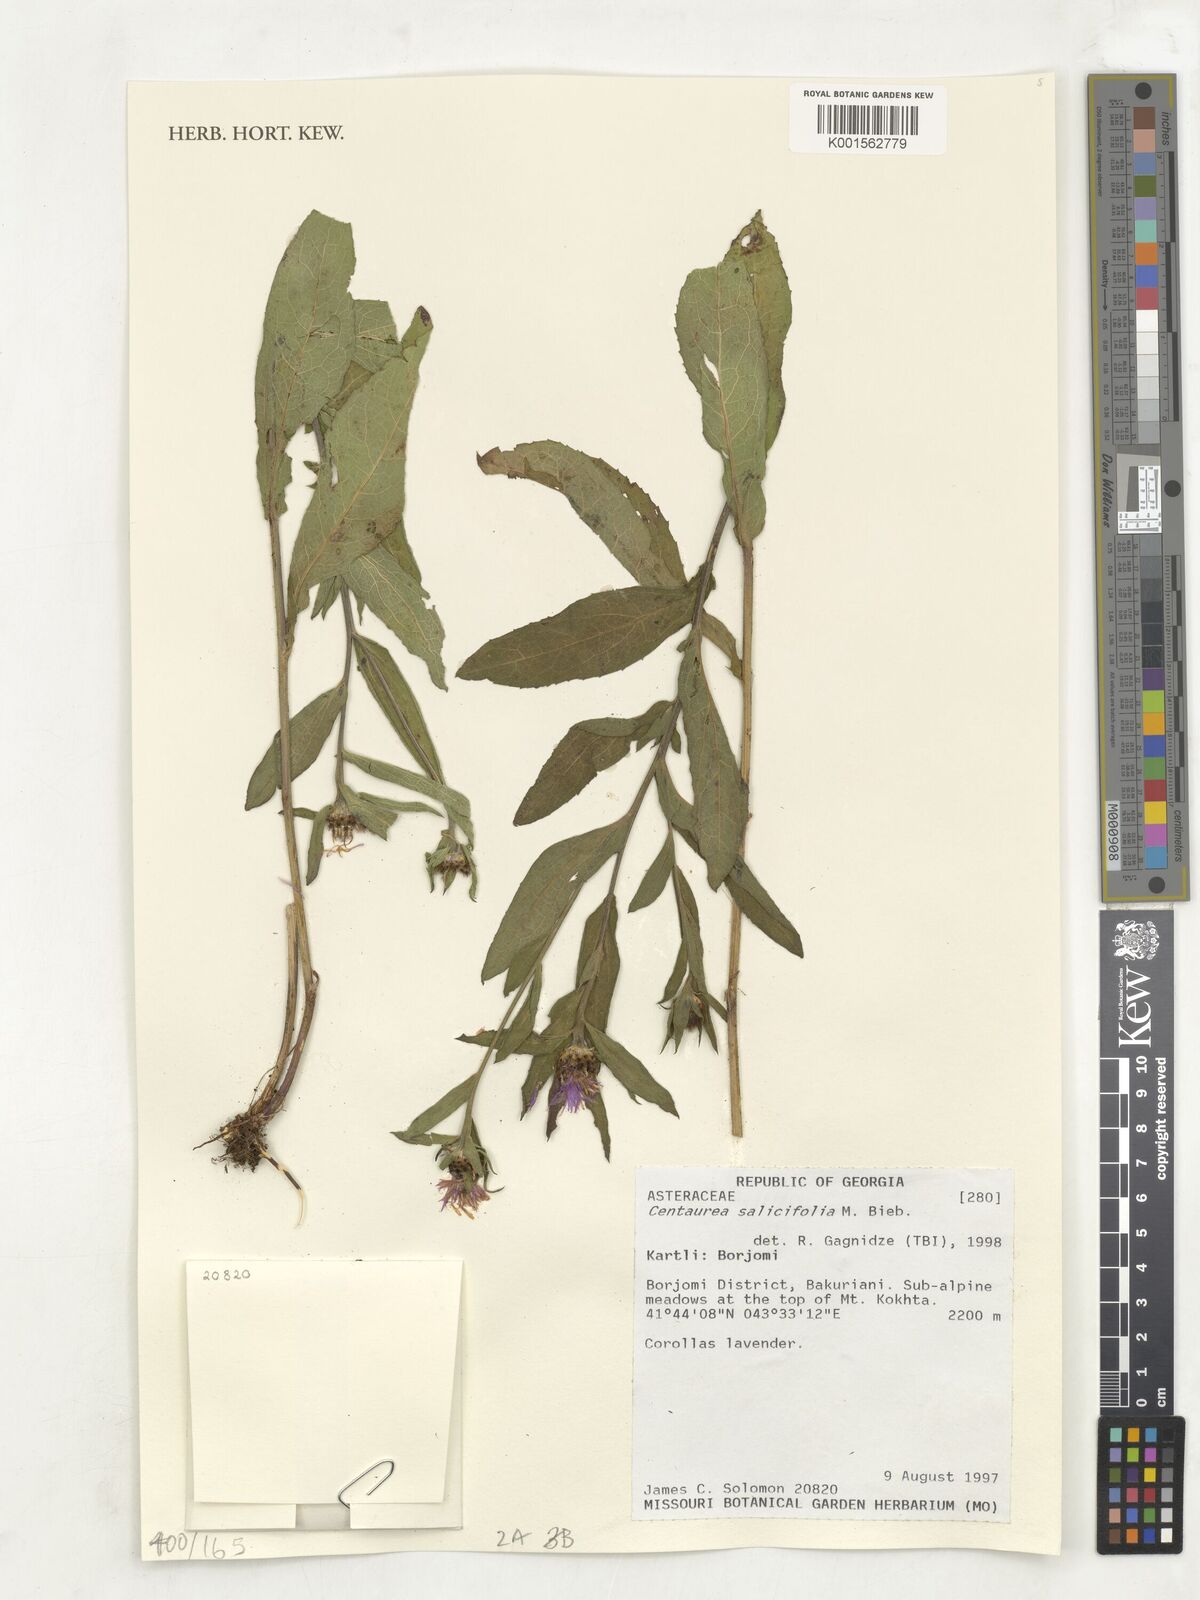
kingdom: Plantae
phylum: Tracheophyta
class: Magnoliopsida
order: Asterales
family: Asteraceae
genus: Centaurea
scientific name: Centaurea phrygia
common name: Wig knapweed
